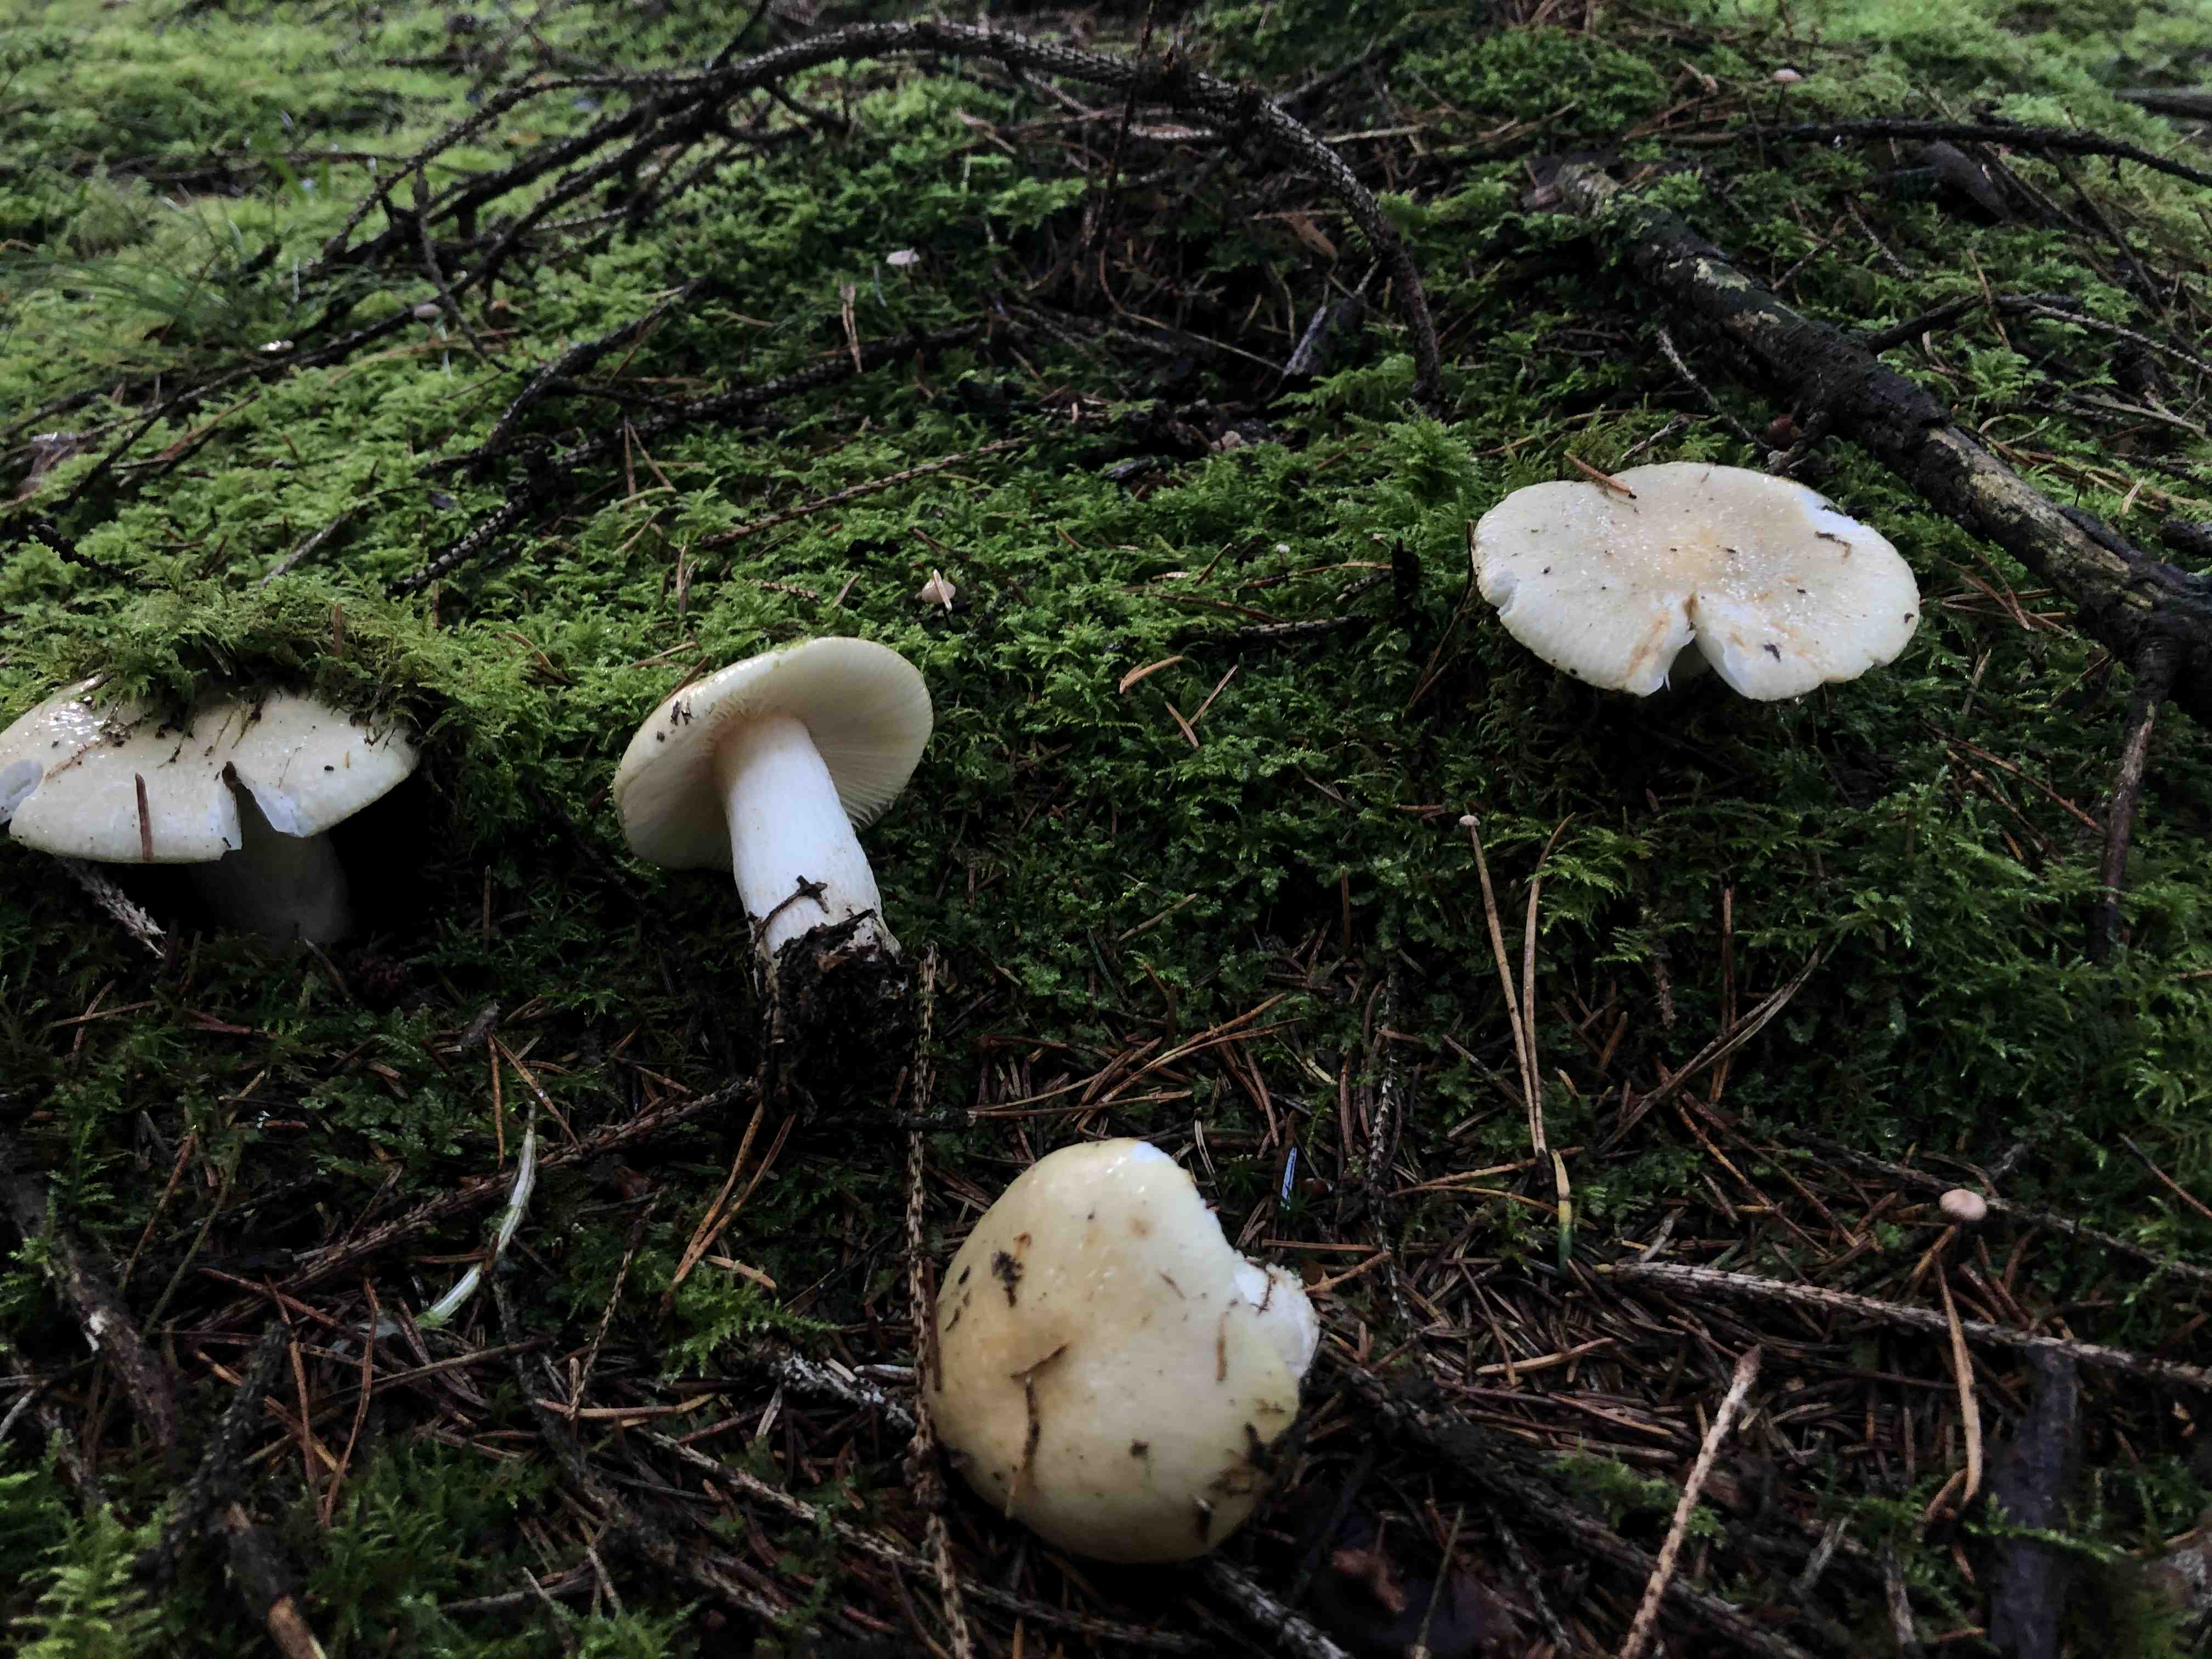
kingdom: Fungi
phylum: Basidiomycota
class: Agaricomycetes
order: Russulales
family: Russulaceae
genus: Russula
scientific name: Russula ochroleuca
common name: okkergul skørhat
